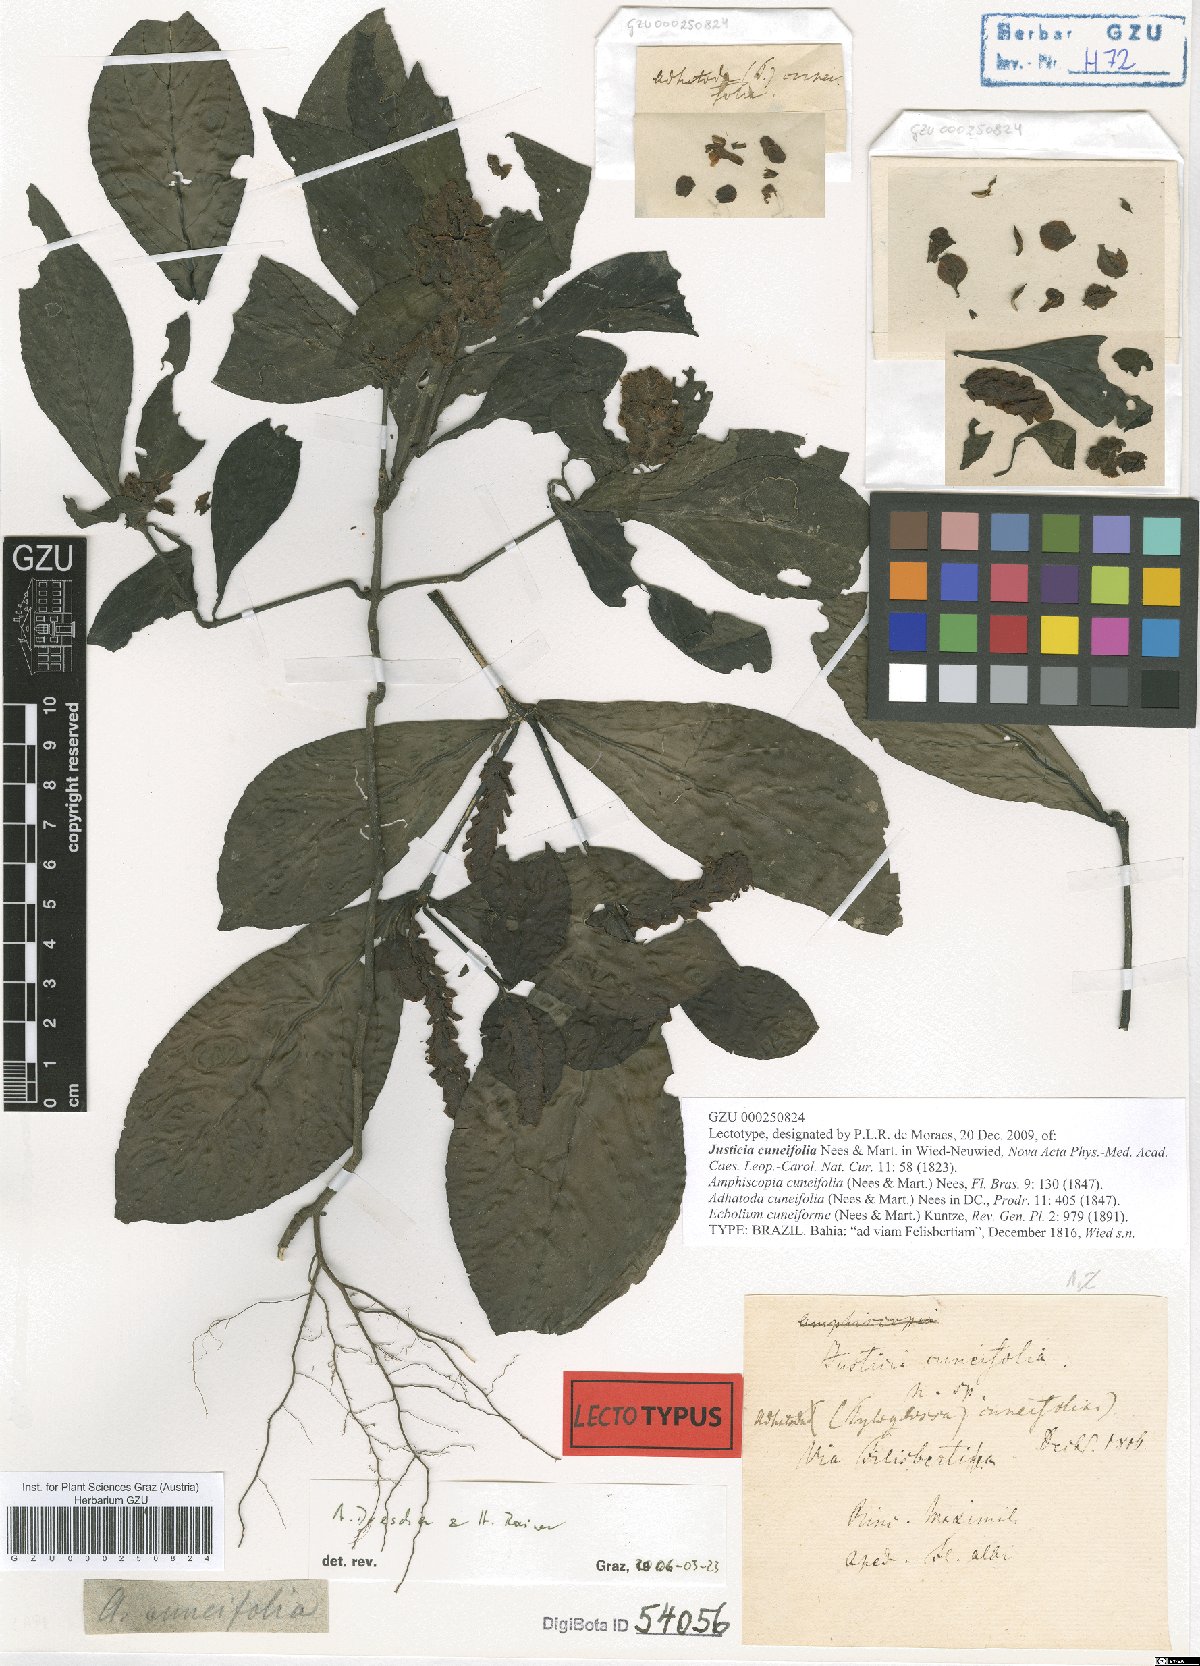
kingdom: Plantae
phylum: Tracheophyta
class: Magnoliopsida
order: Lamiales
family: Acanthaceae
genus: Justicia
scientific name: Justicia cuneifolia
